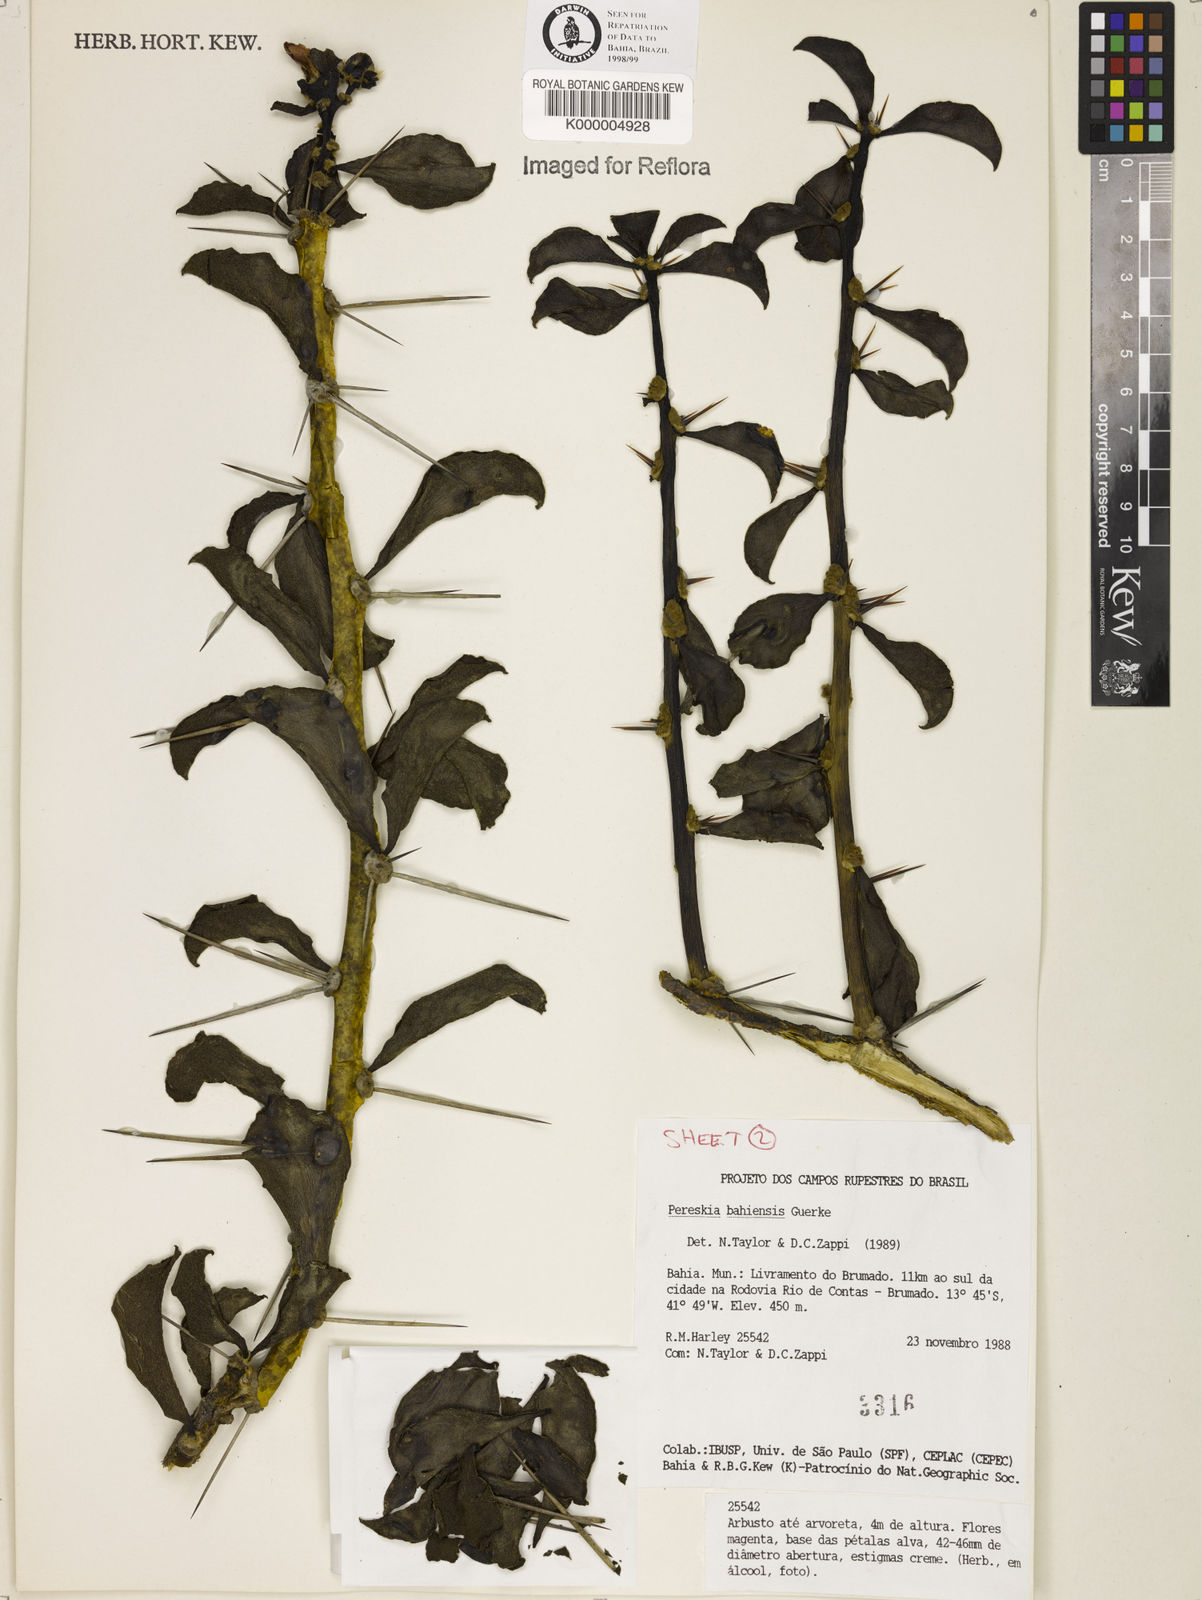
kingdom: Plantae
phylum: Tracheophyta
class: Magnoliopsida
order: Caryophyllales
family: Cactaceae
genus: Pereskia
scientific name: Pereskia
